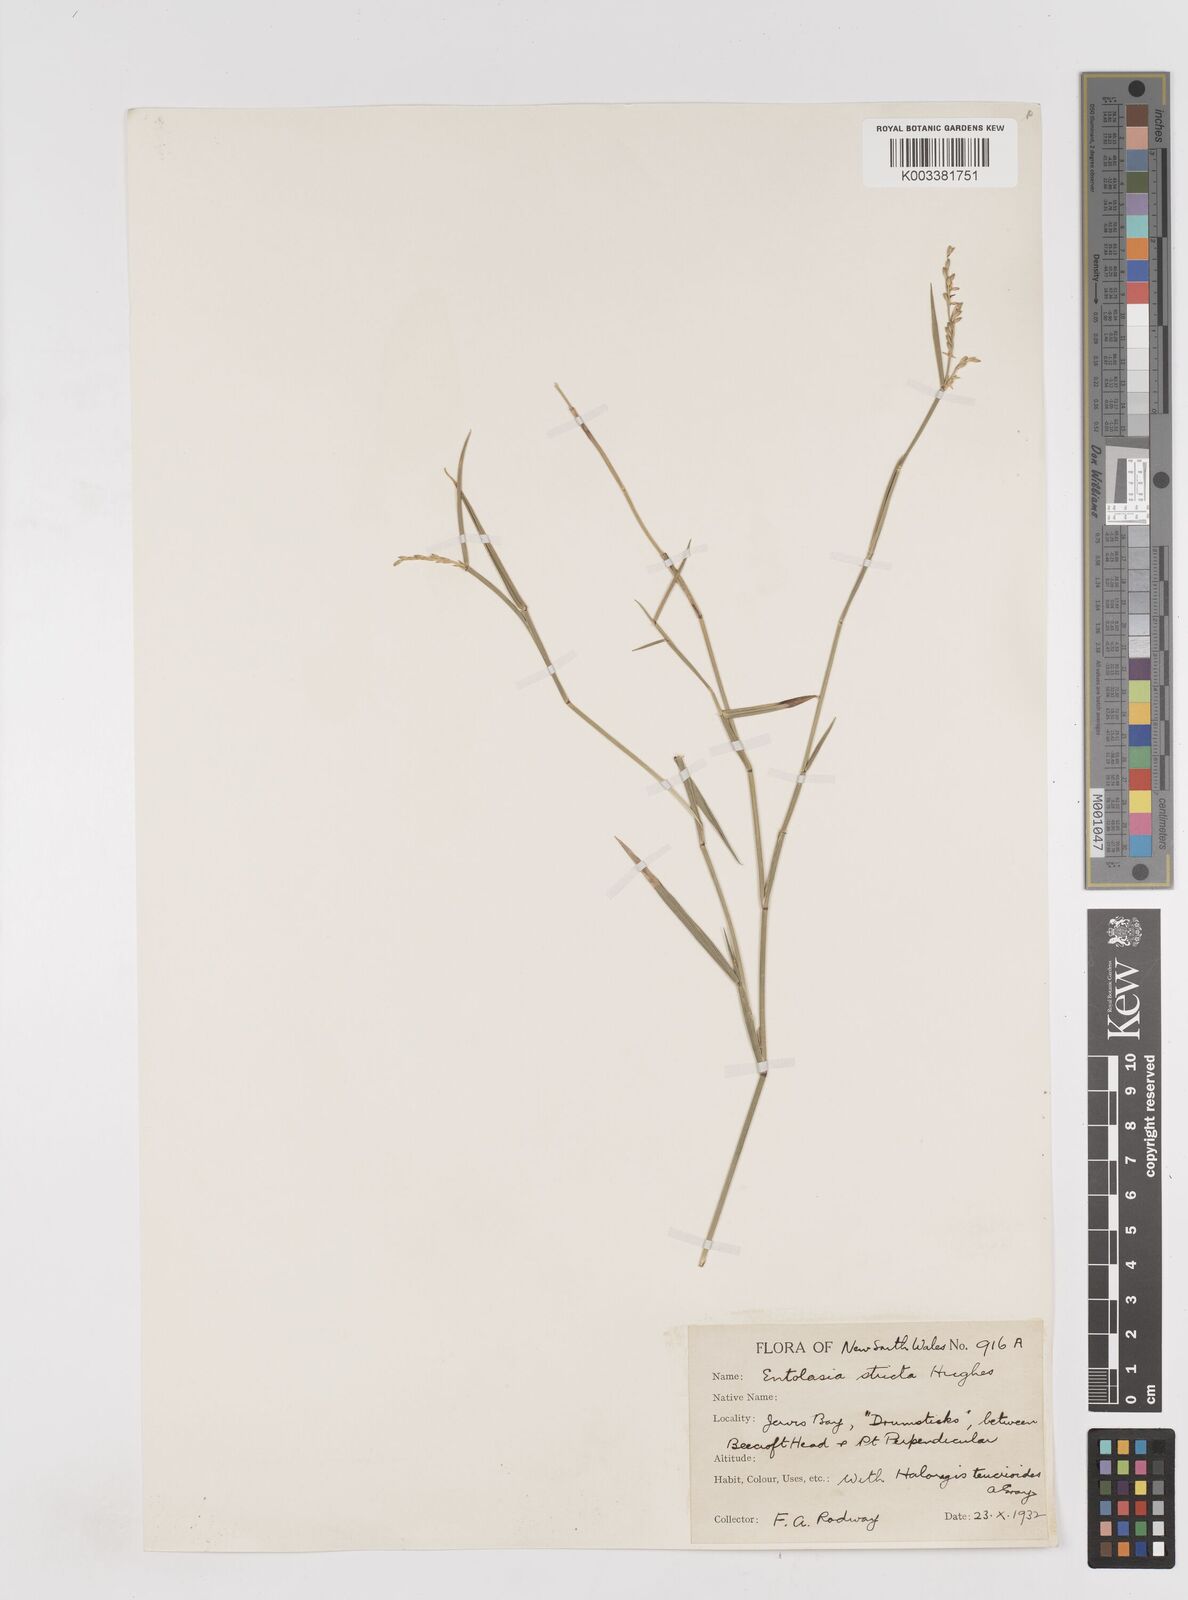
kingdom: Plantae
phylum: Tracheophyta
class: Liliopsida
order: Poales
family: Poaceae
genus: Entolasia
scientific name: Entolasia stricta
